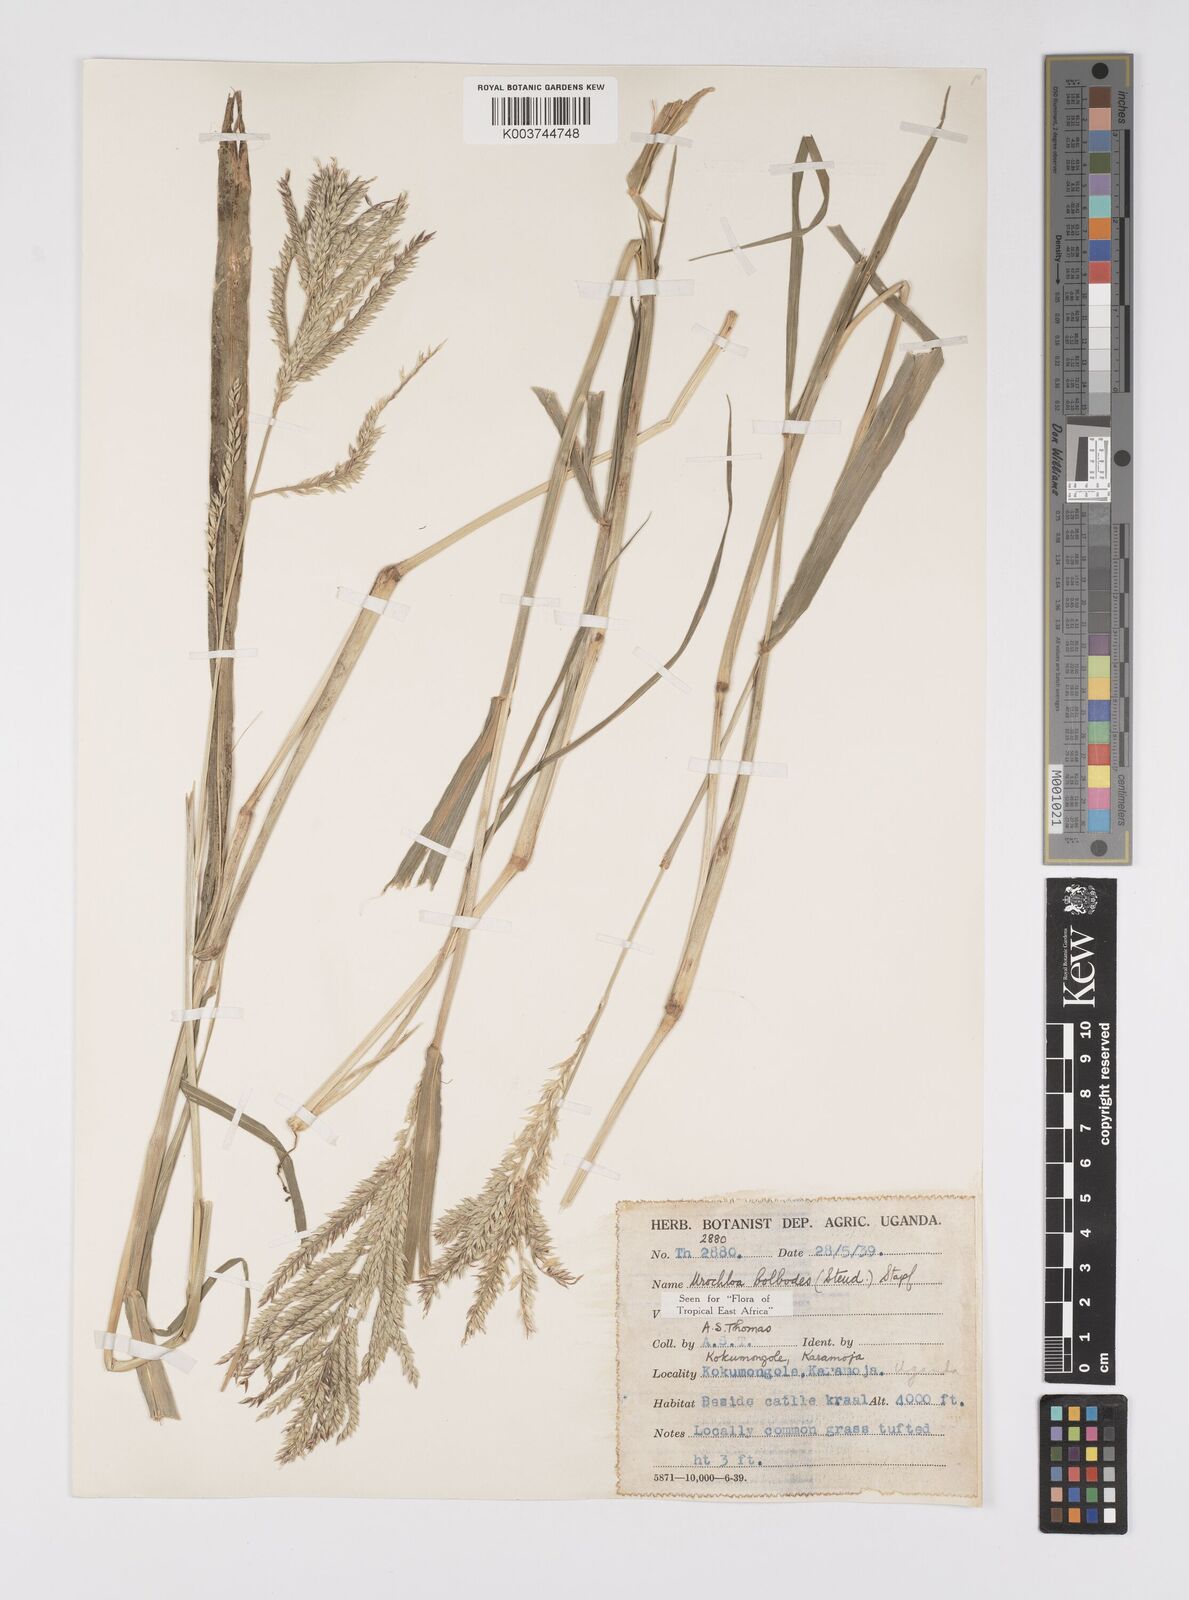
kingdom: Plantae
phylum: Tracheophyta
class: Liliopsida
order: Poales
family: Poaceae
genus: Urochloa
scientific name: Urochloa oligotricha
